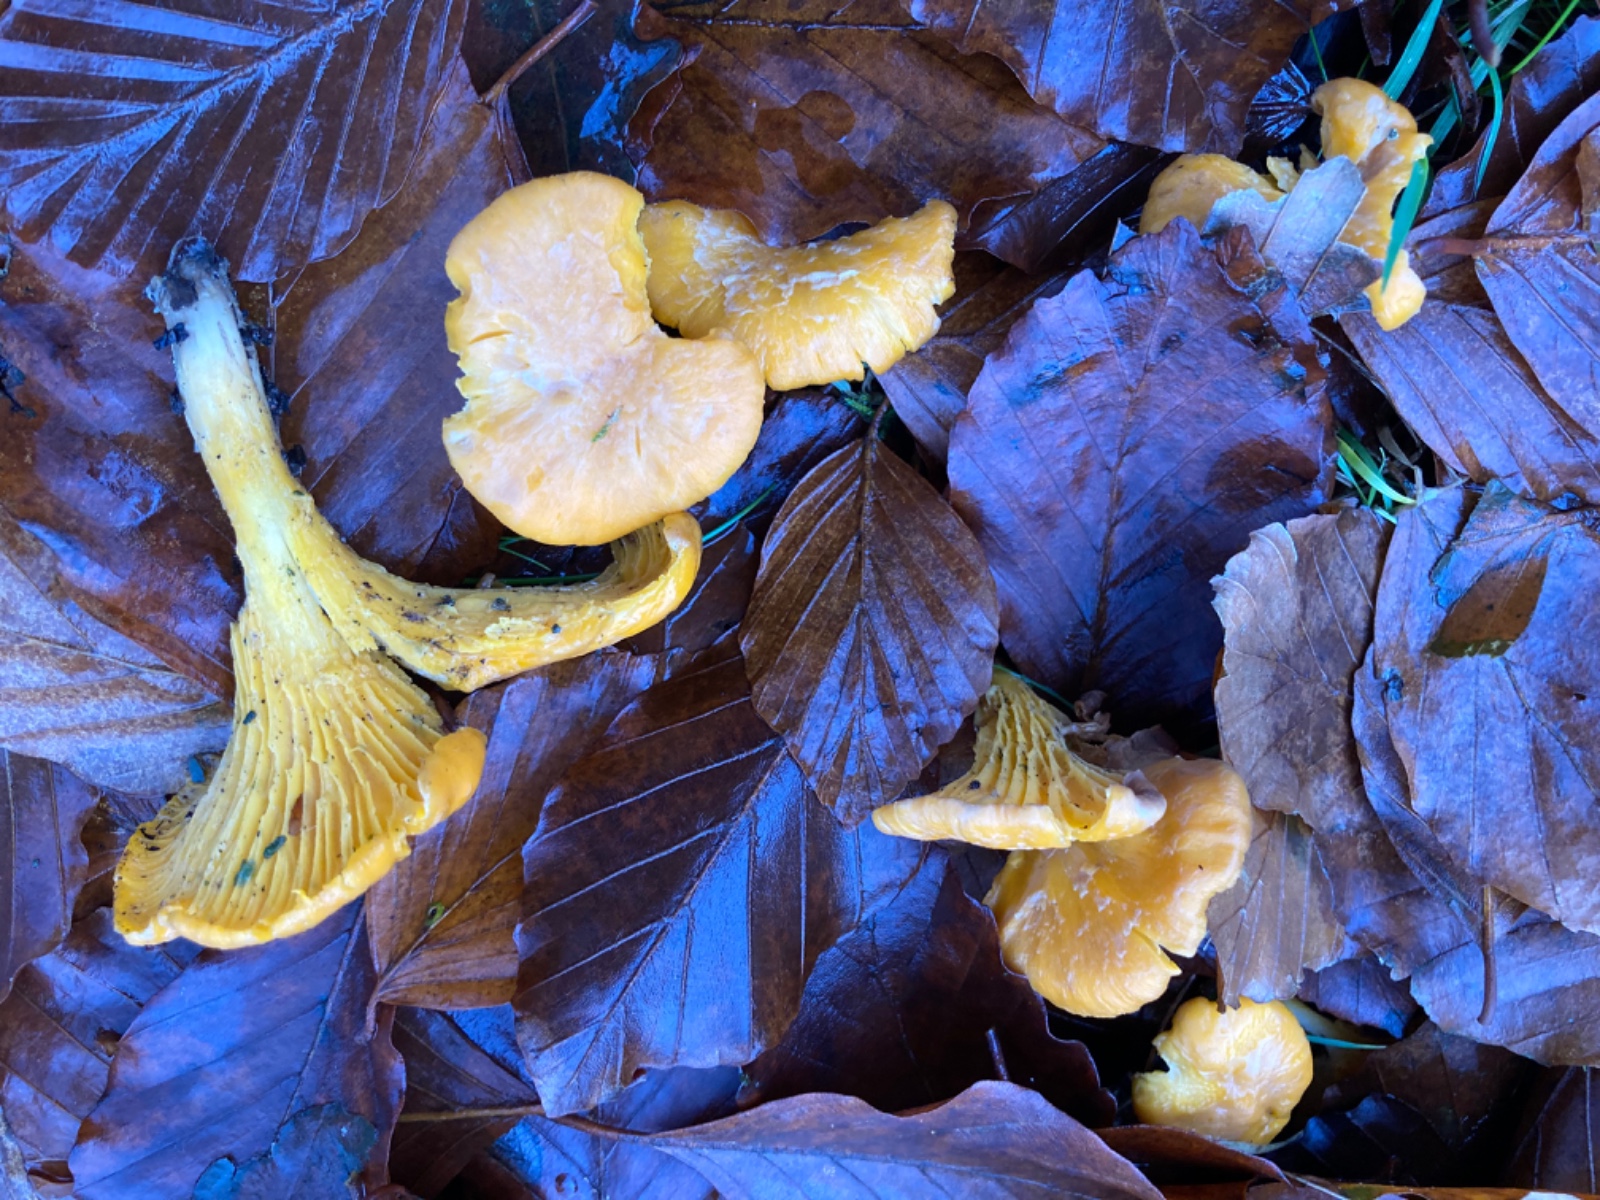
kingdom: Fungi
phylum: Basidiomycota
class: Agaricomycetes
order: Cantharellales
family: Hydnaceae
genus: Cantharellus
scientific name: Cantharellus cibarius
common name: almindelig kantarel
